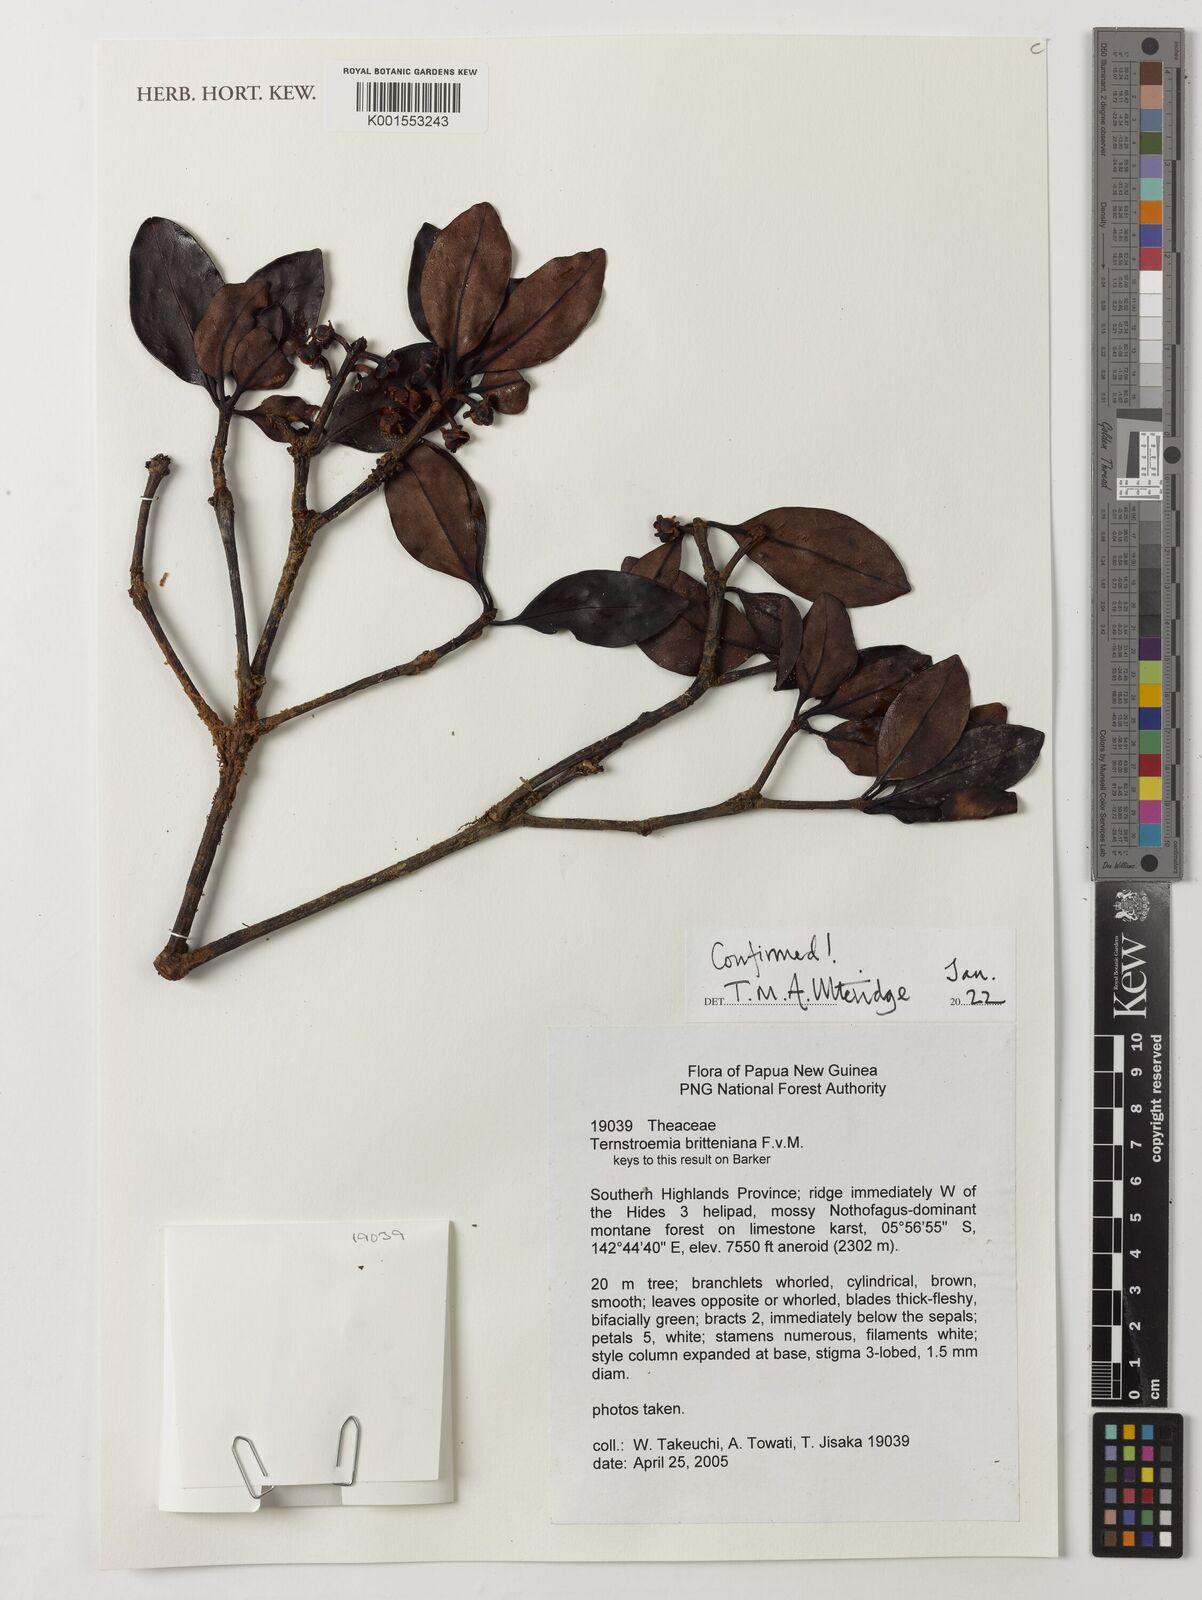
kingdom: Plantae
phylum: Tracheophyta
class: Magnoliopsida
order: Ericales
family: Pentaphylacaceae
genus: Ternstroemia
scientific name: Ternstroemia britteniana
